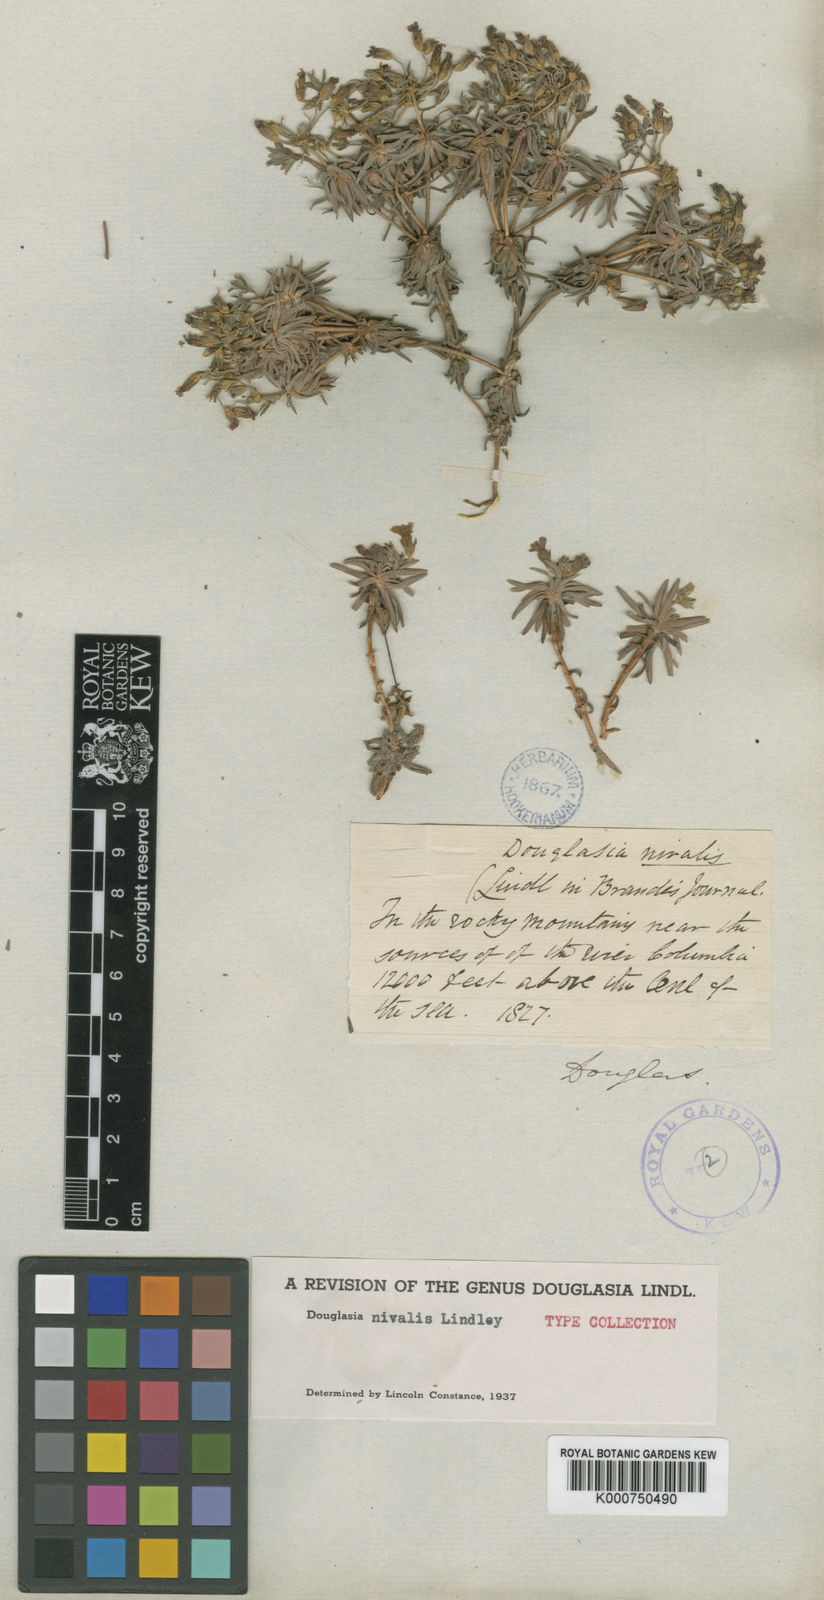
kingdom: Plantae
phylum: Tracheophyta
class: Magnoliopsida
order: Ericales
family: Primulaceae
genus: Androsace
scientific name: Androsace
